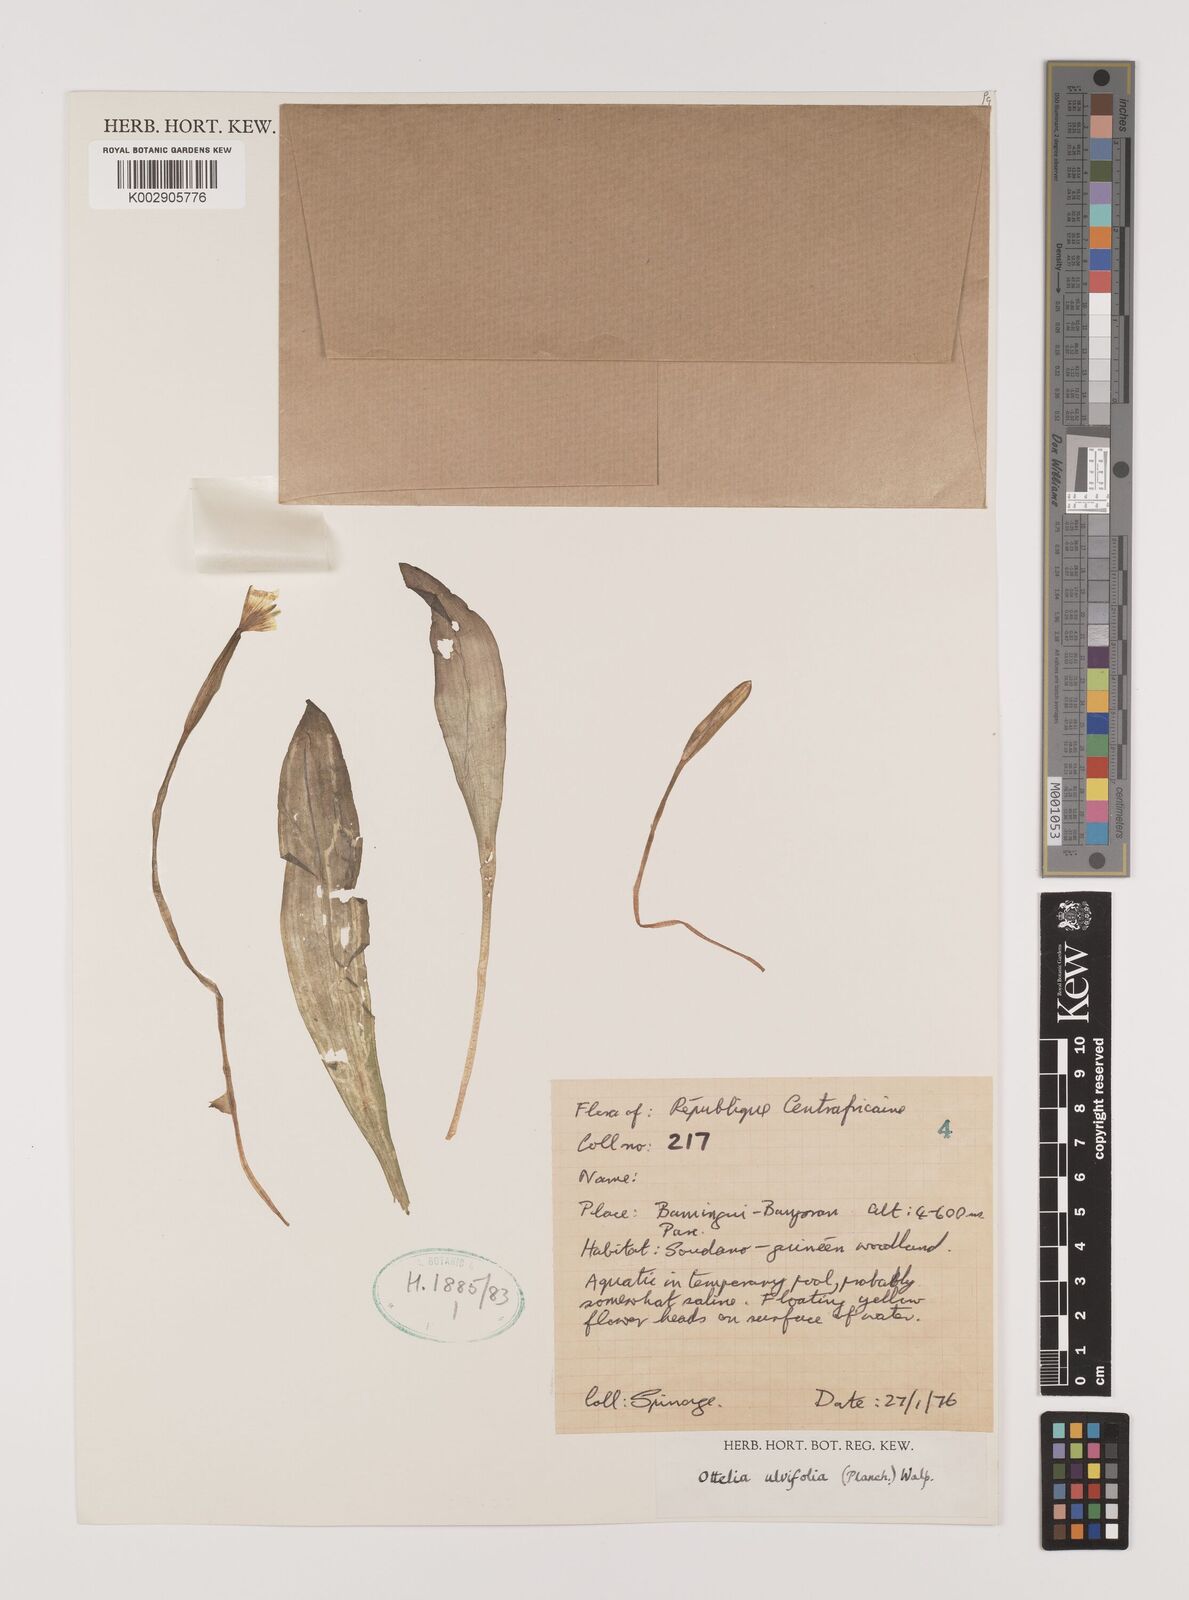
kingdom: Plantae
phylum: Tracheophyta
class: Liliopsida
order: Alismatales
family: Hydrocharitaceae
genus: Ottelia
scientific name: Ottelia ulvifolia
